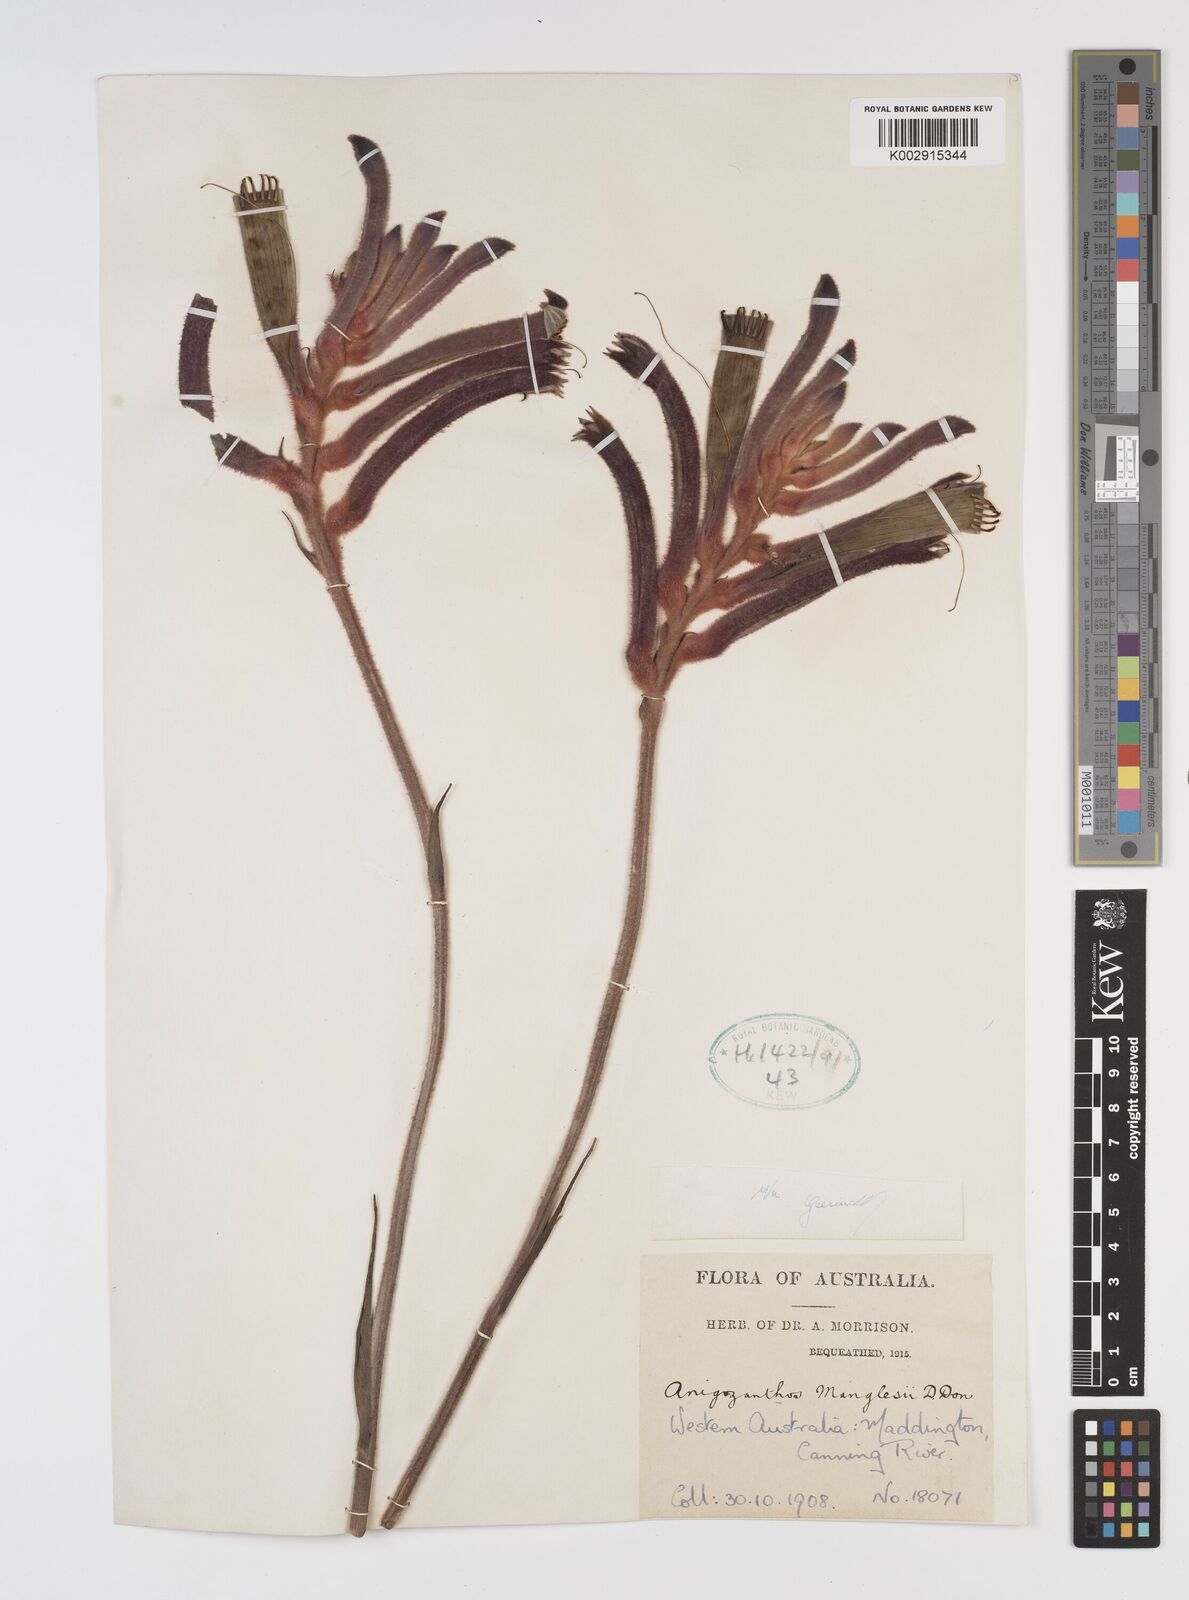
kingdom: Plantae
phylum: Tracheophyta
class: Liliopsida
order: Commelinales
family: Haemodoraceae
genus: Anigozanthos
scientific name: Anigozanthos manglesii
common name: Mangles's kangaroo-paw
